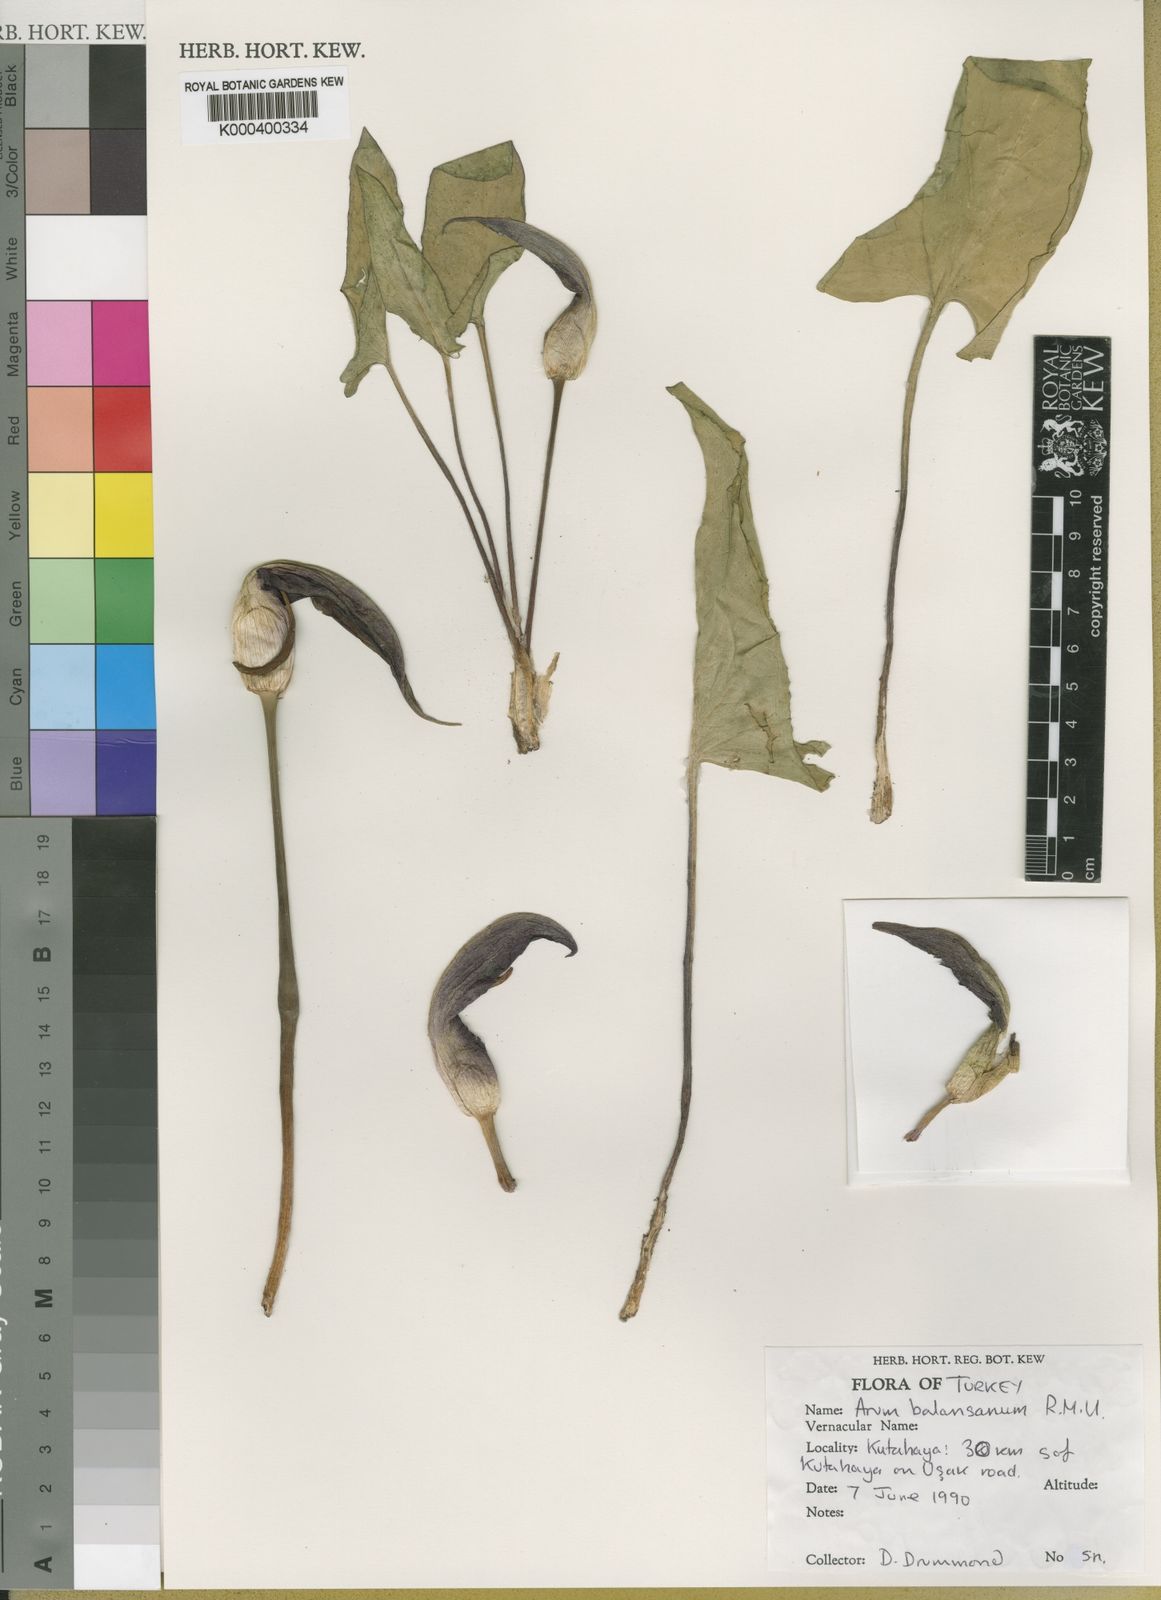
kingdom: Plantae
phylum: Tracheophyta
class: Liliopsida
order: Alismatales
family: Araceae
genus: Arum
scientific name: Arum orientale
